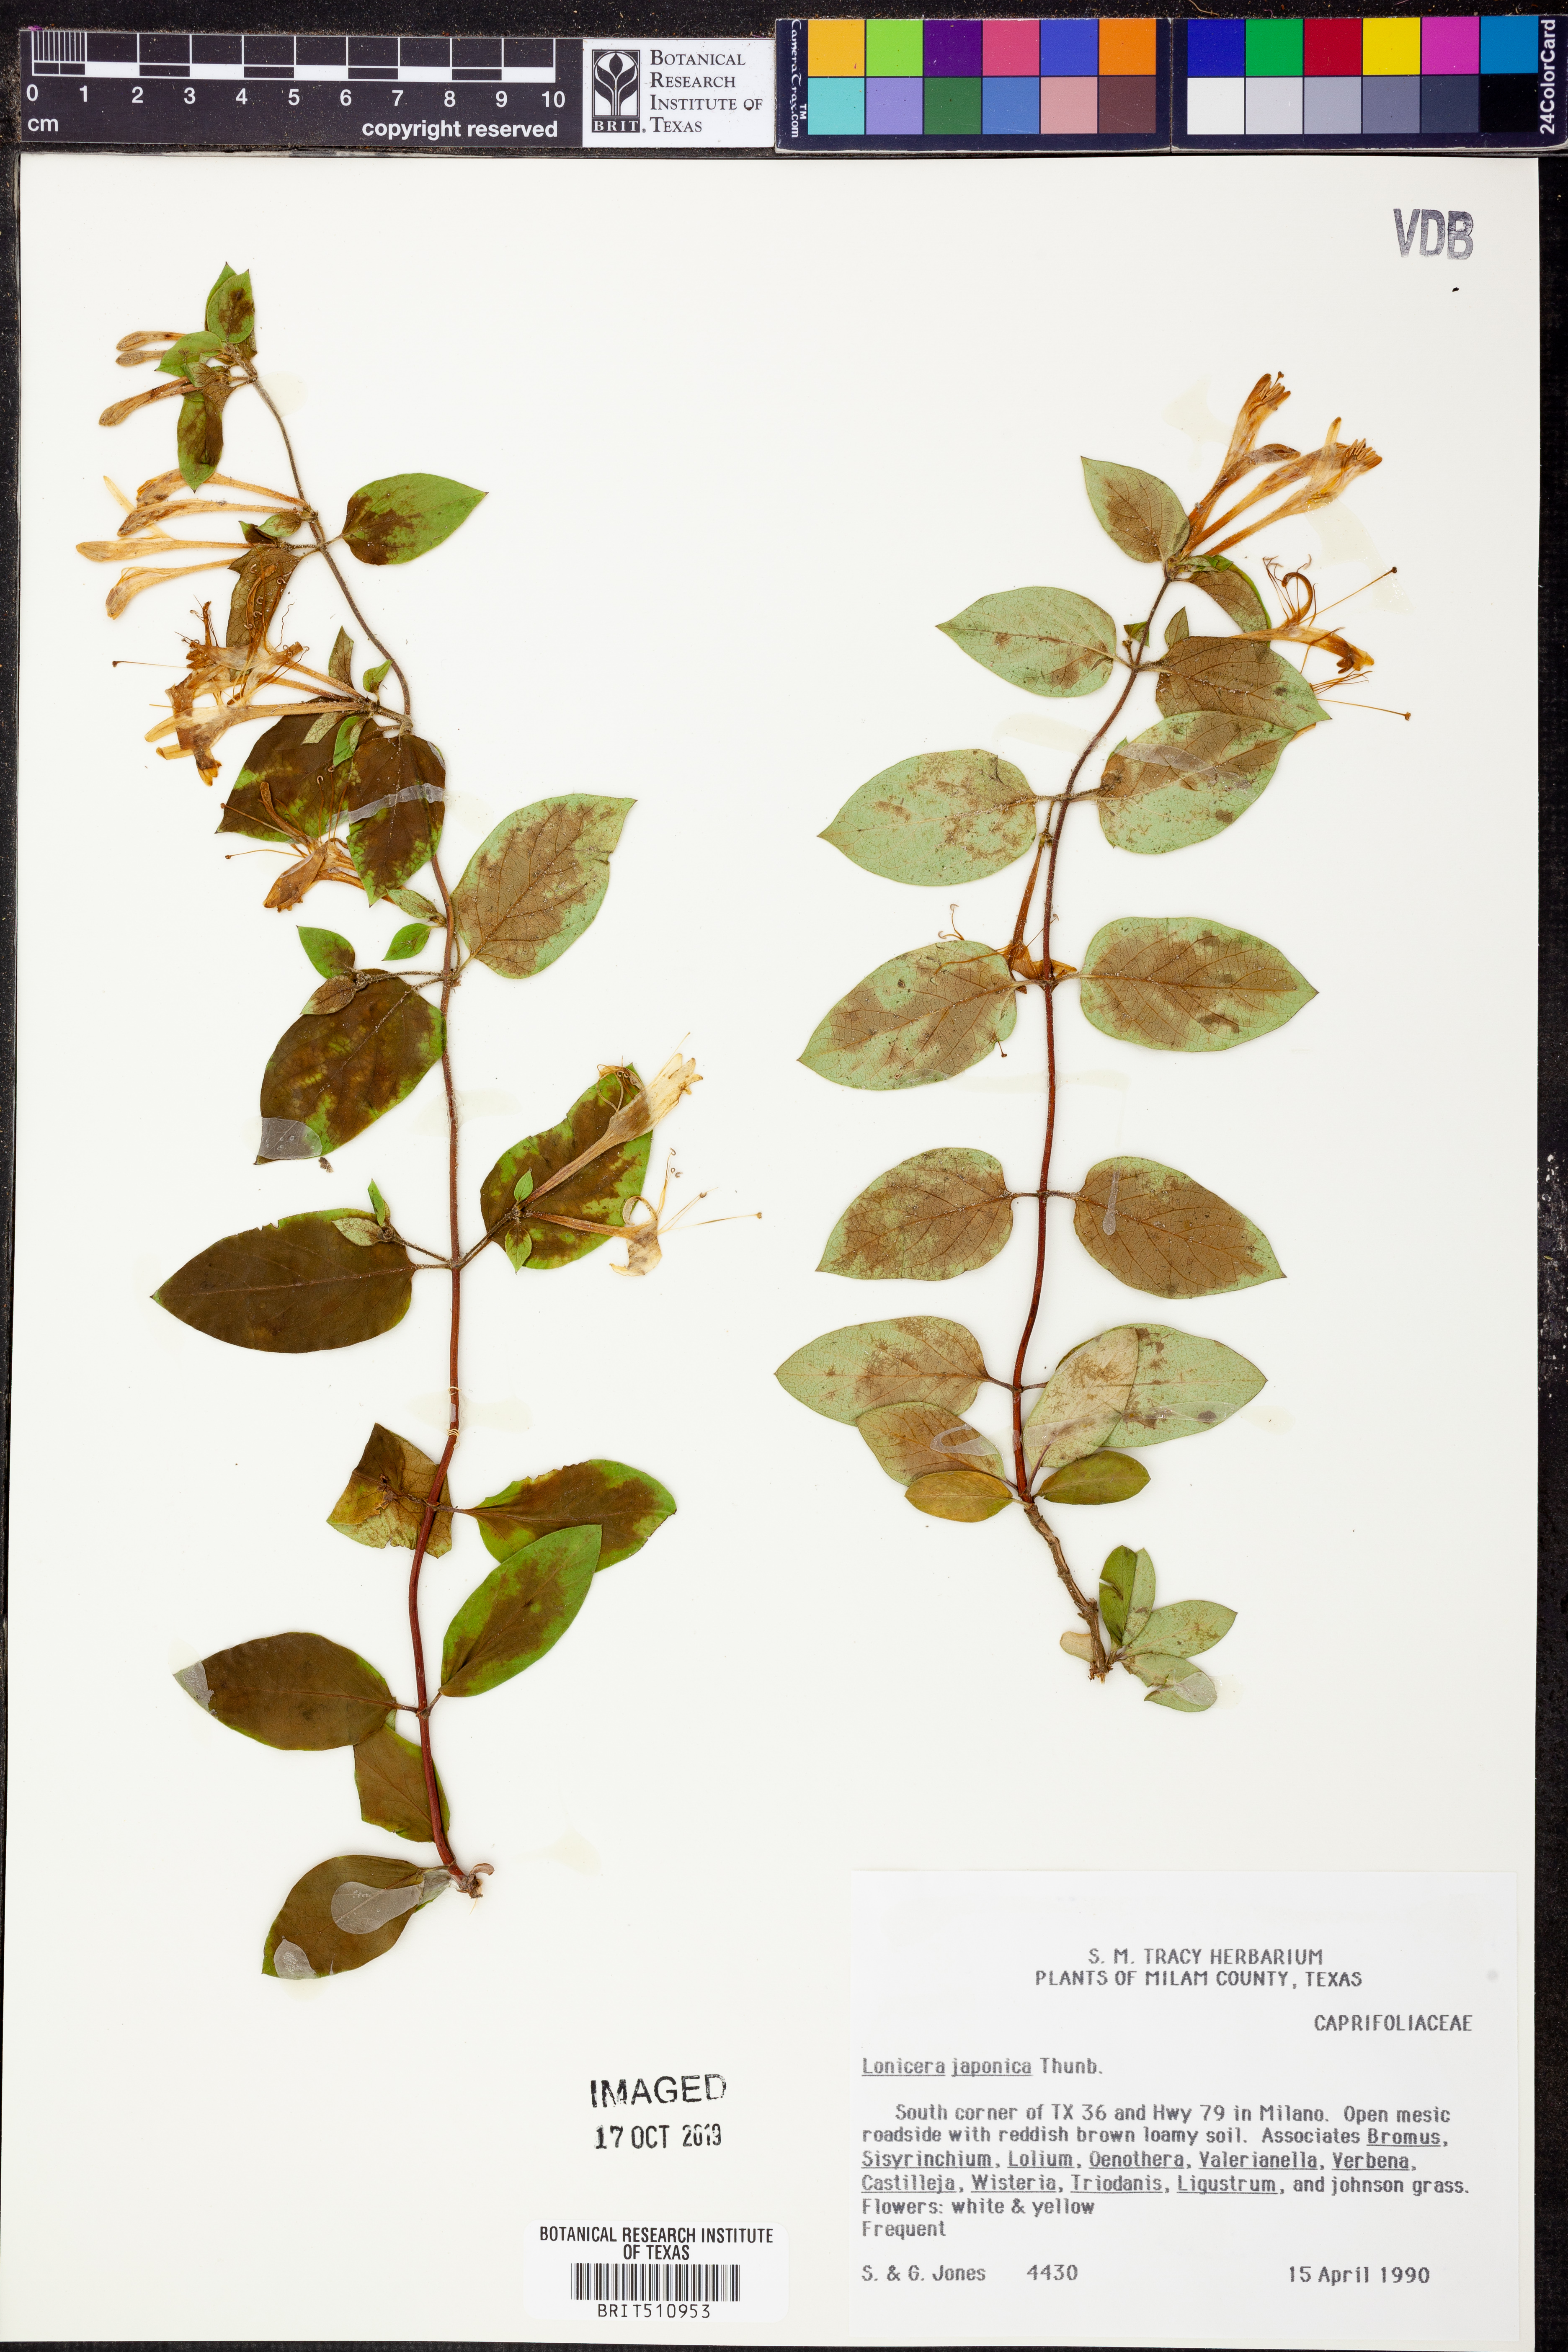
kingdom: Plantae
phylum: Tracheophyta
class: Magnoliopsida
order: Dipsacales
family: Caprifoliaceae
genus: Lonicera
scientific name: Lonicera japonica
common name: Japanese honeysuckle
